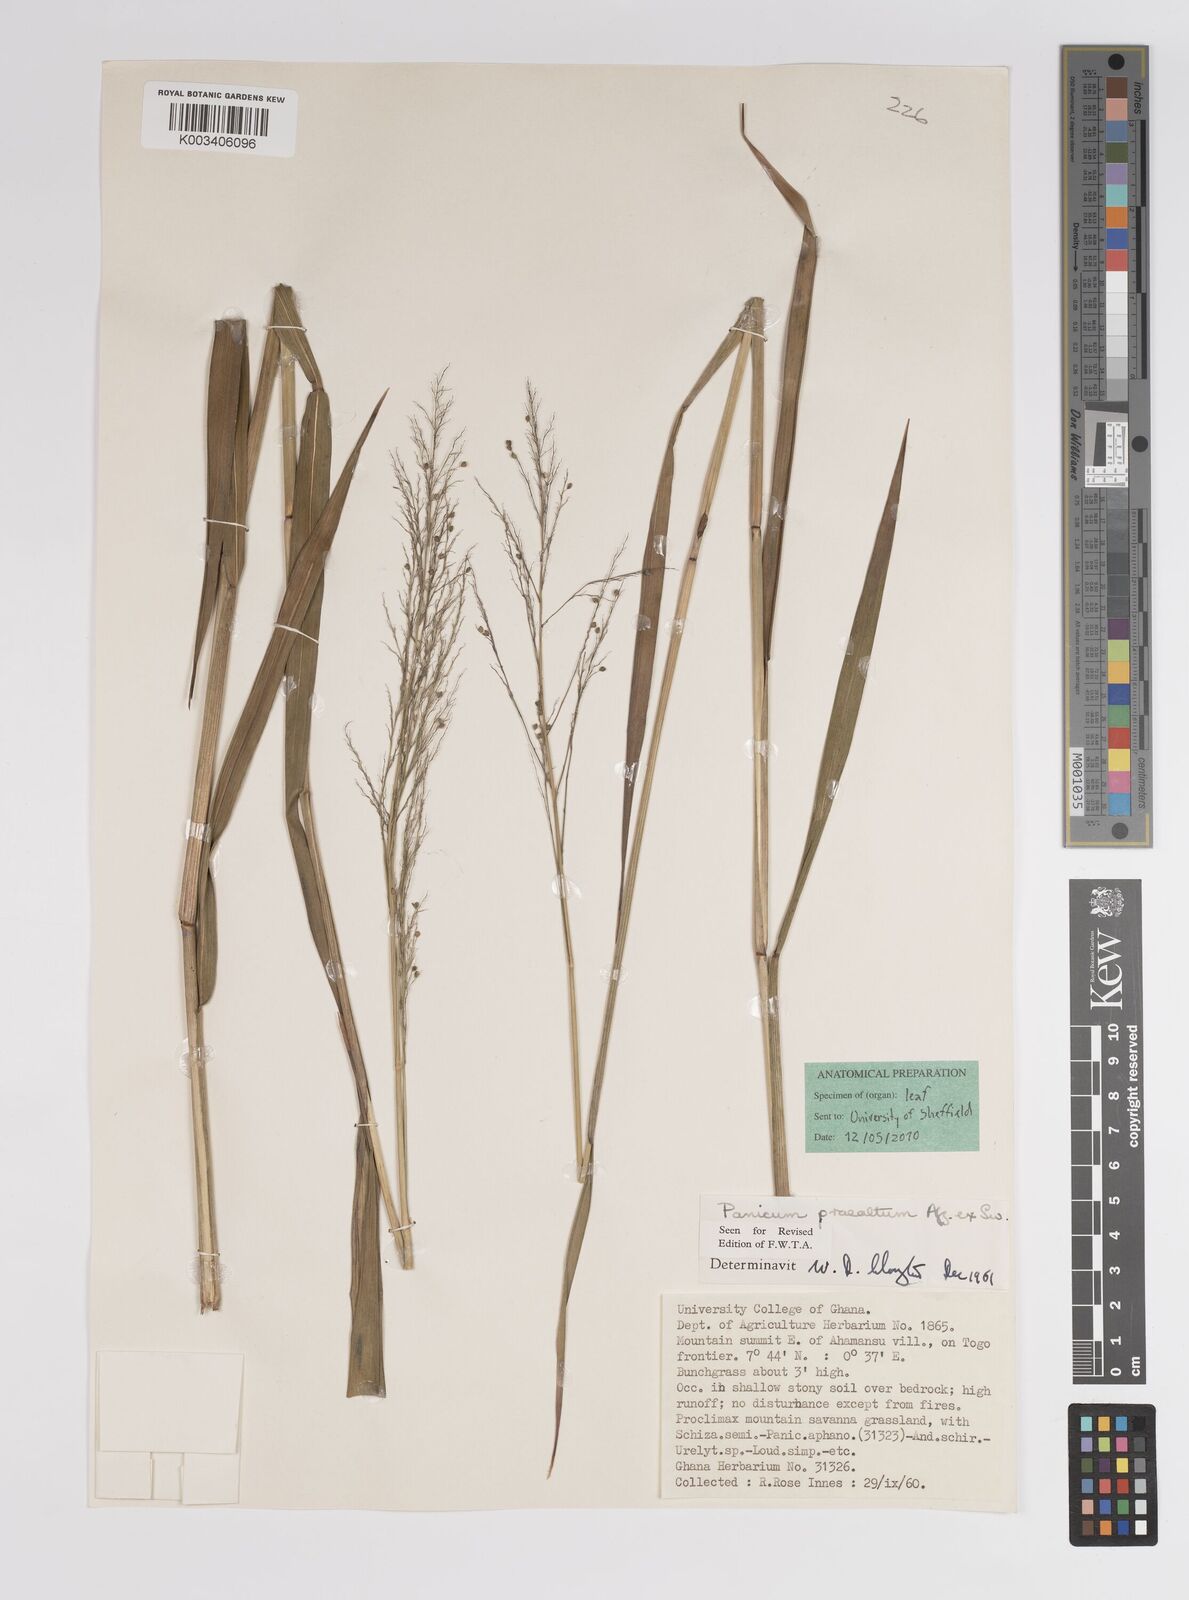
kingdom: Plantae
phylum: Tracheophyta
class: Liliopsida
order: Poales
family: Poaceae
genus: Trichanthecium
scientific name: Trichanthecium praealtum
